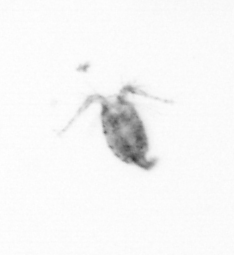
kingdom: Animalia
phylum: Arthropoda
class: Copepoda
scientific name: Copepoda
